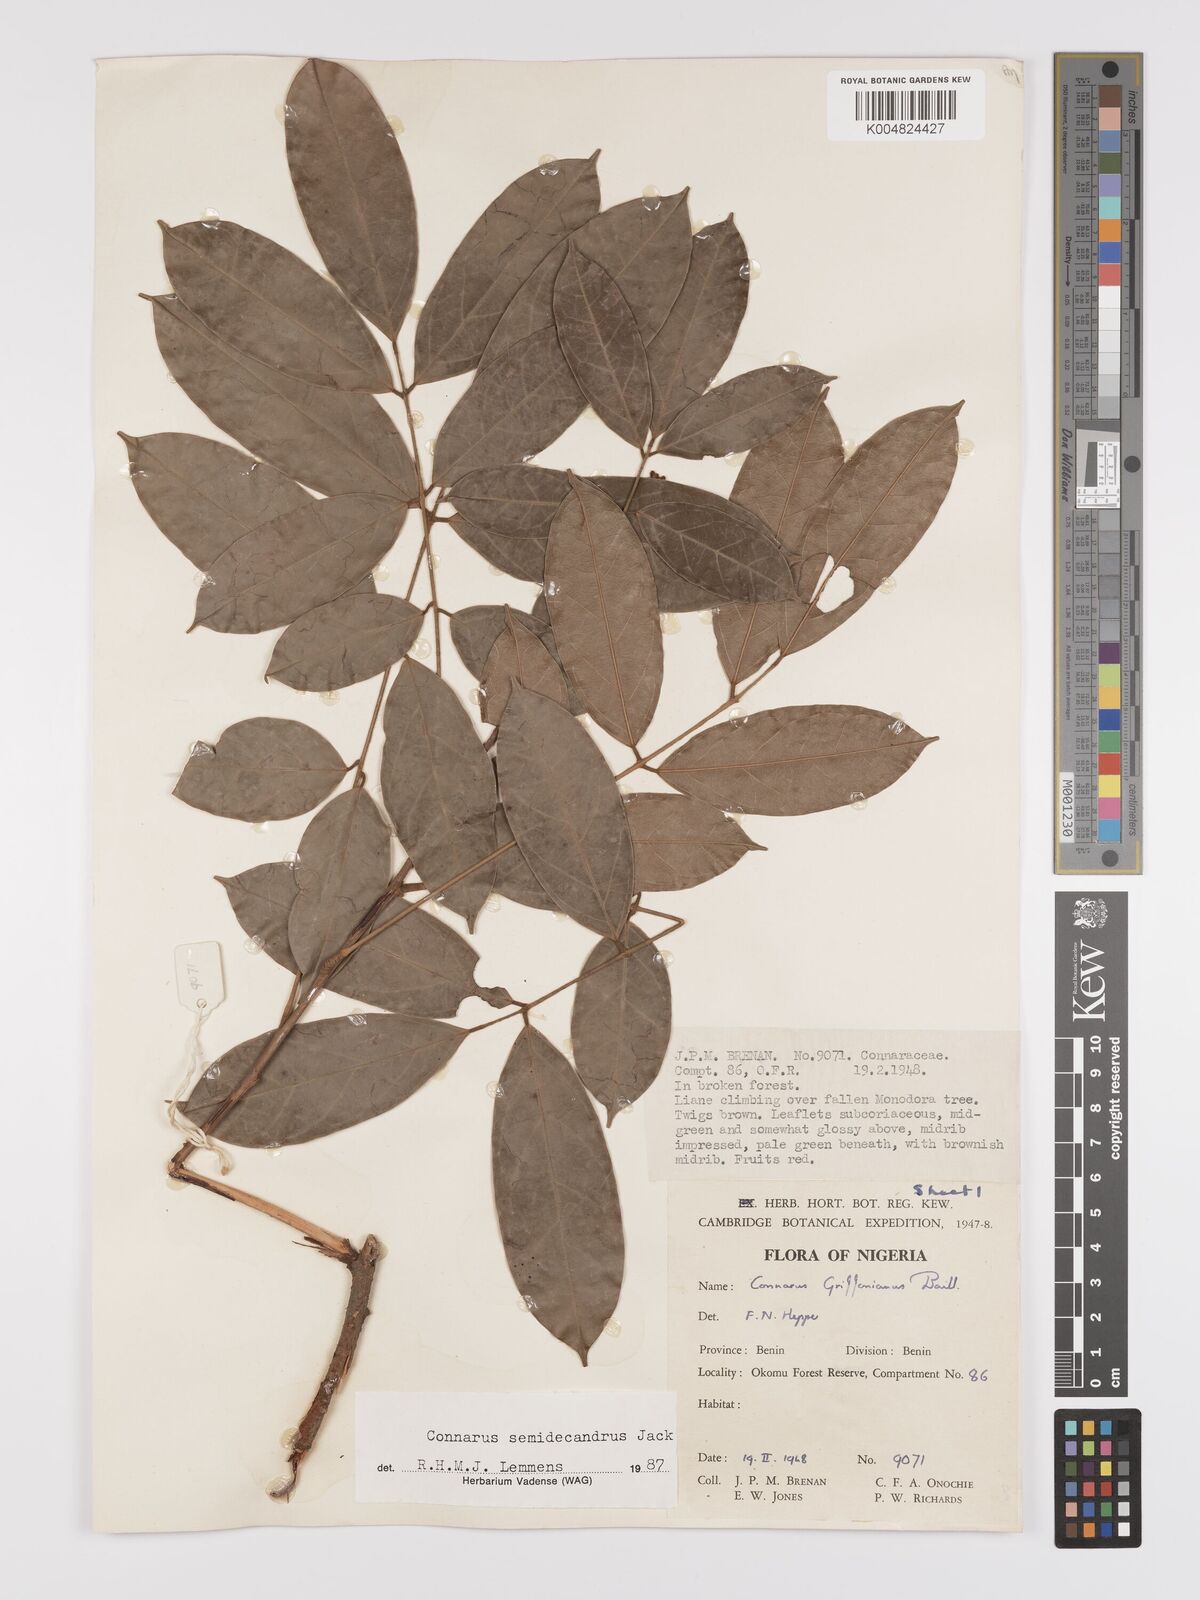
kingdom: Plantae
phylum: Tracheophyta
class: Magnoliopsida
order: Oxalidales
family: Connaraceae
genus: Connarus
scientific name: Connarus griffonianus
